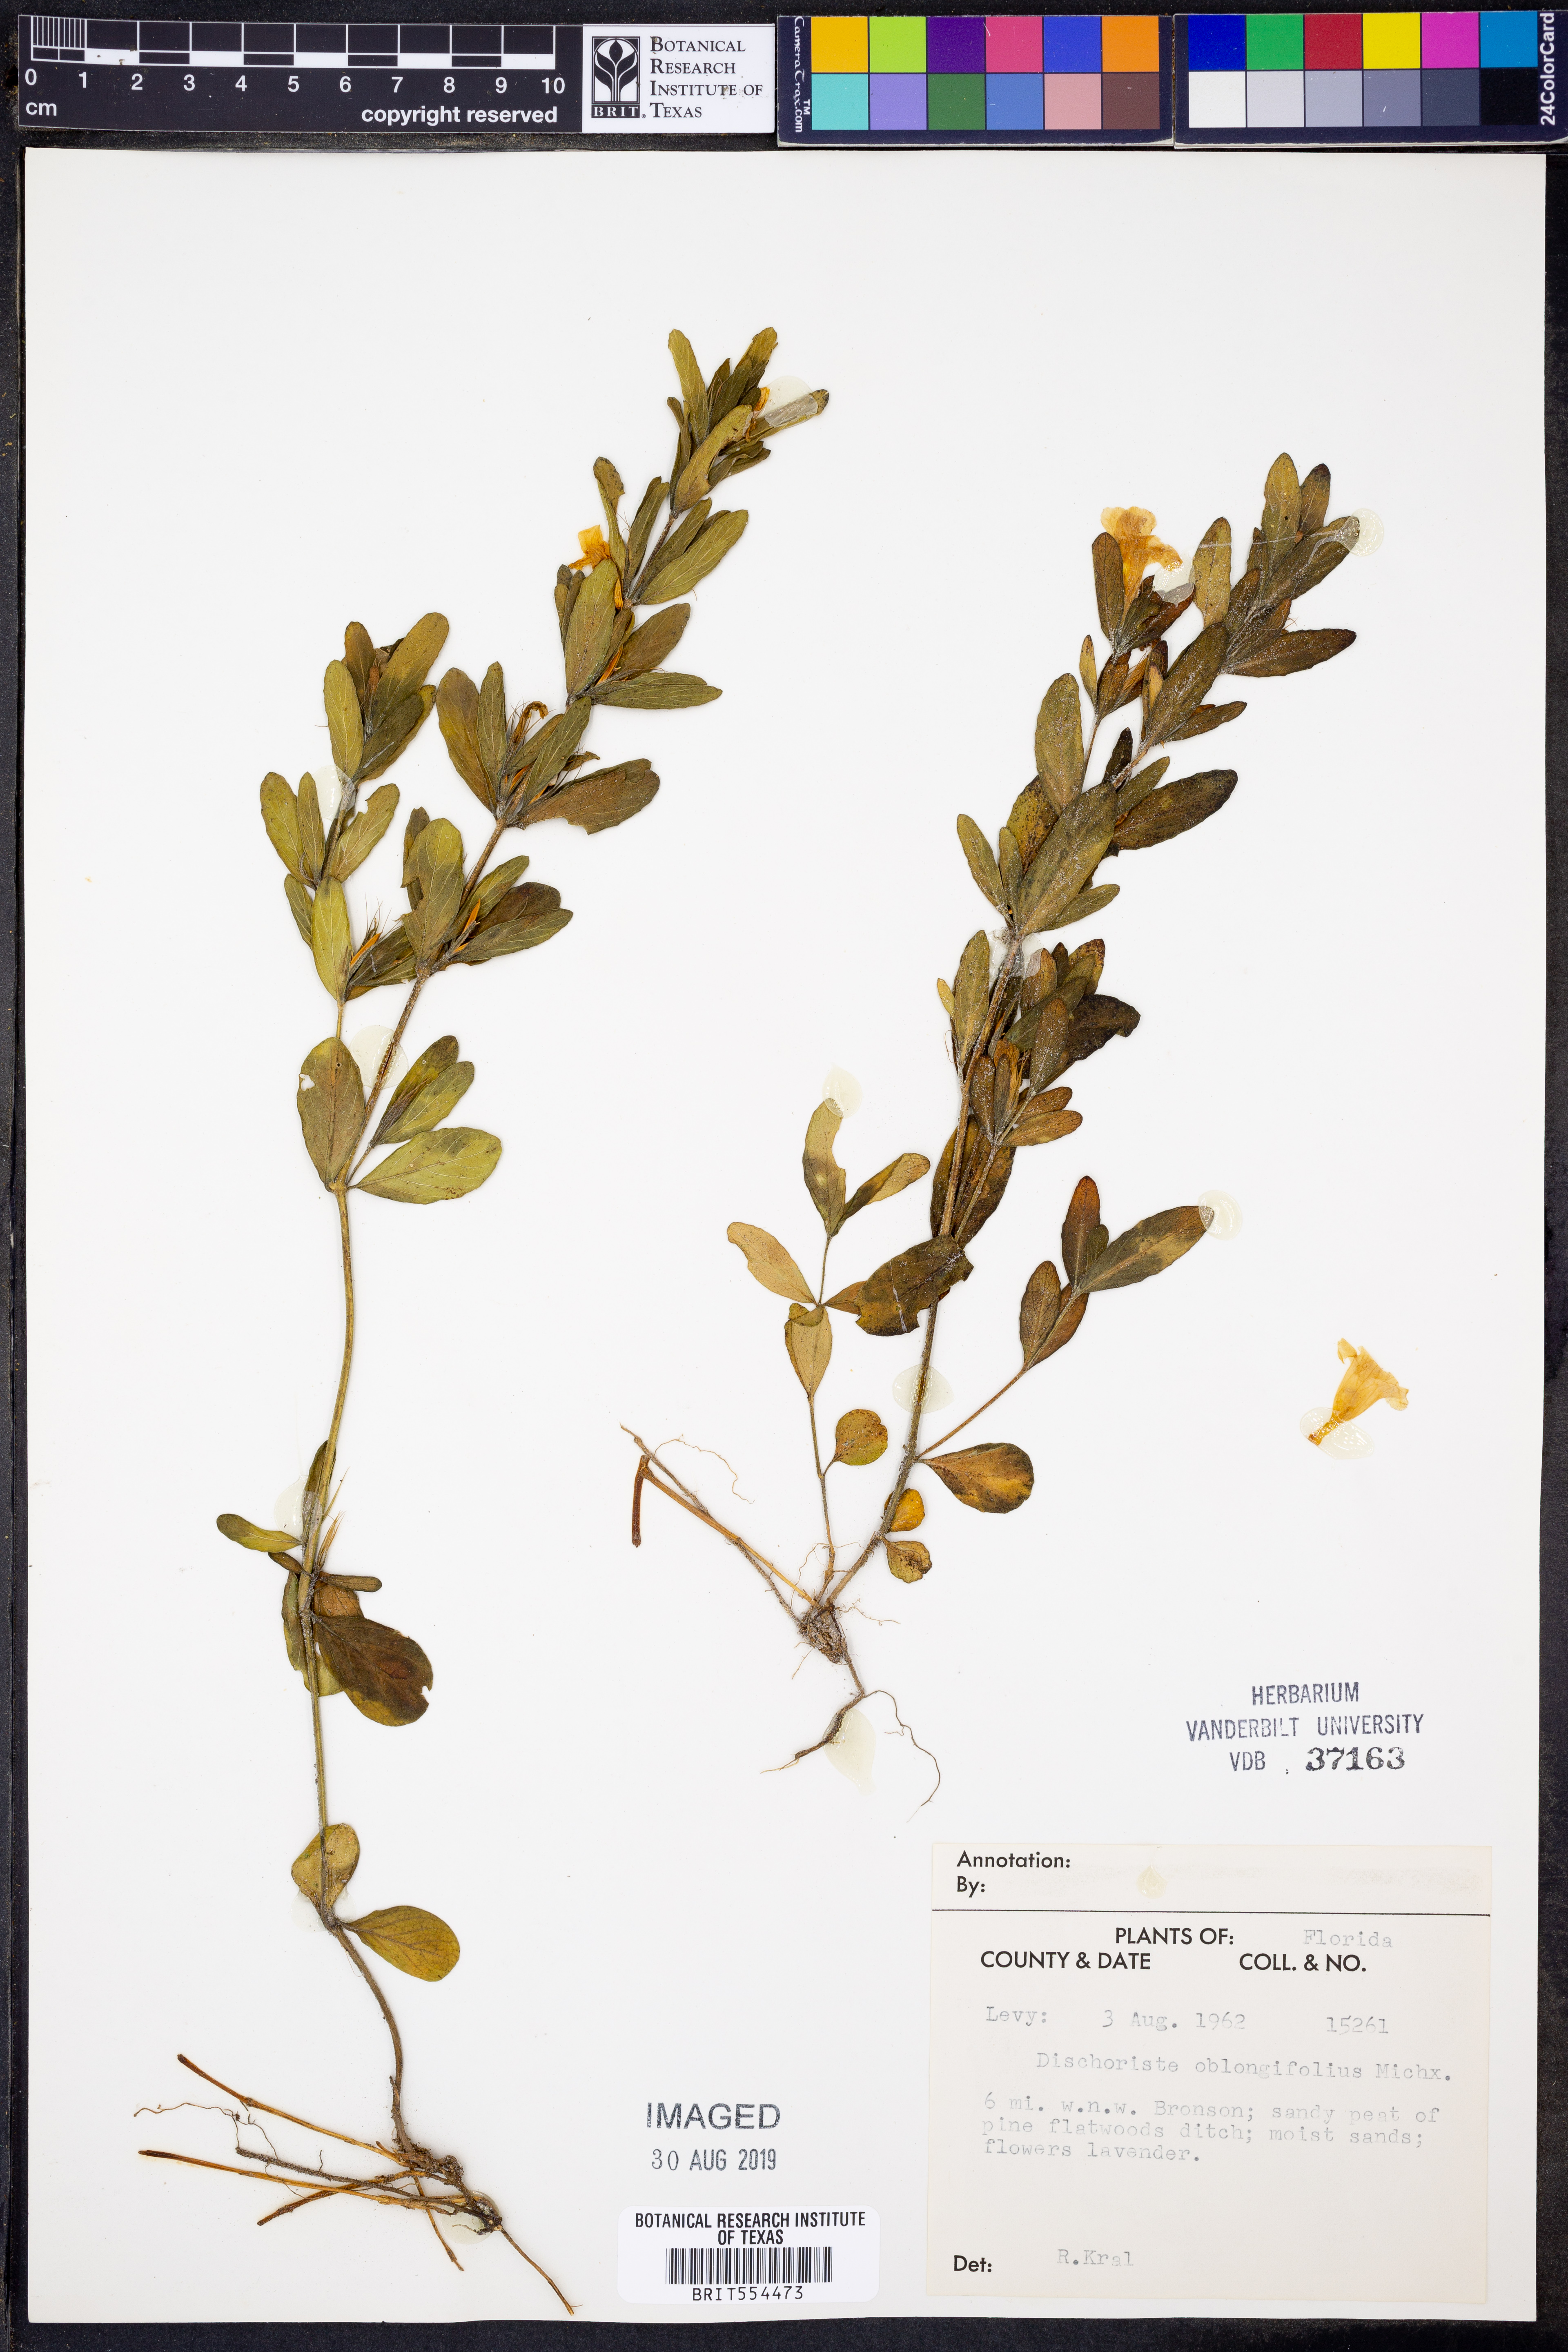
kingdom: Plantae
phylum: Tracheophyta
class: Magnoliopsida
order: Lamiales
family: Acanthaceae
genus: Dyschoriste
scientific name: Dyschoriste oblongifolia
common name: Blue twinflower
